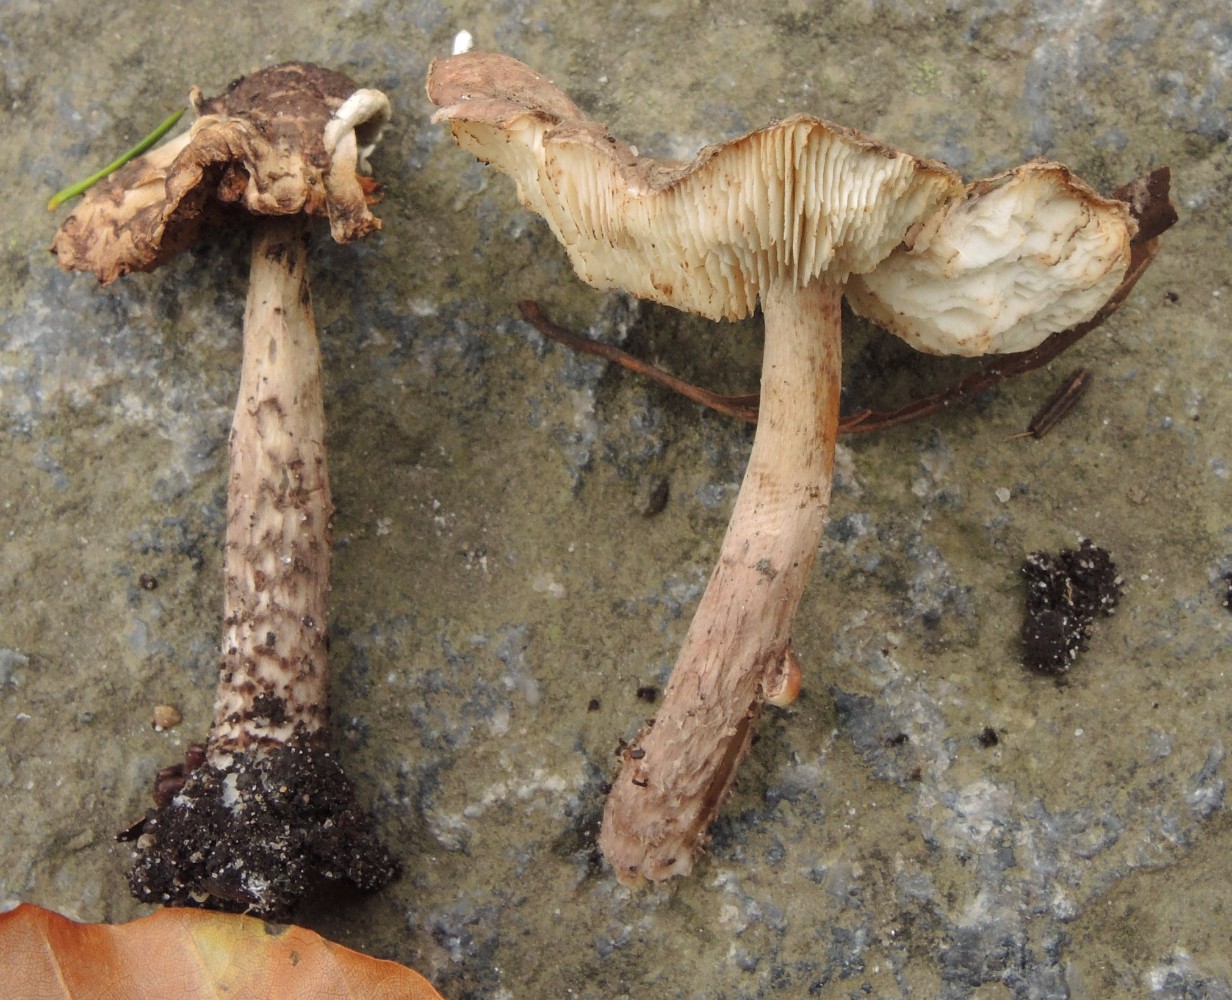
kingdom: Fungi
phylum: Basidiomycota
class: Agaricomycetes
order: Agaricales
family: Agaricaceae
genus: Lepiota
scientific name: Lepiota fuscovinacea
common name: vinrød parasolhat
